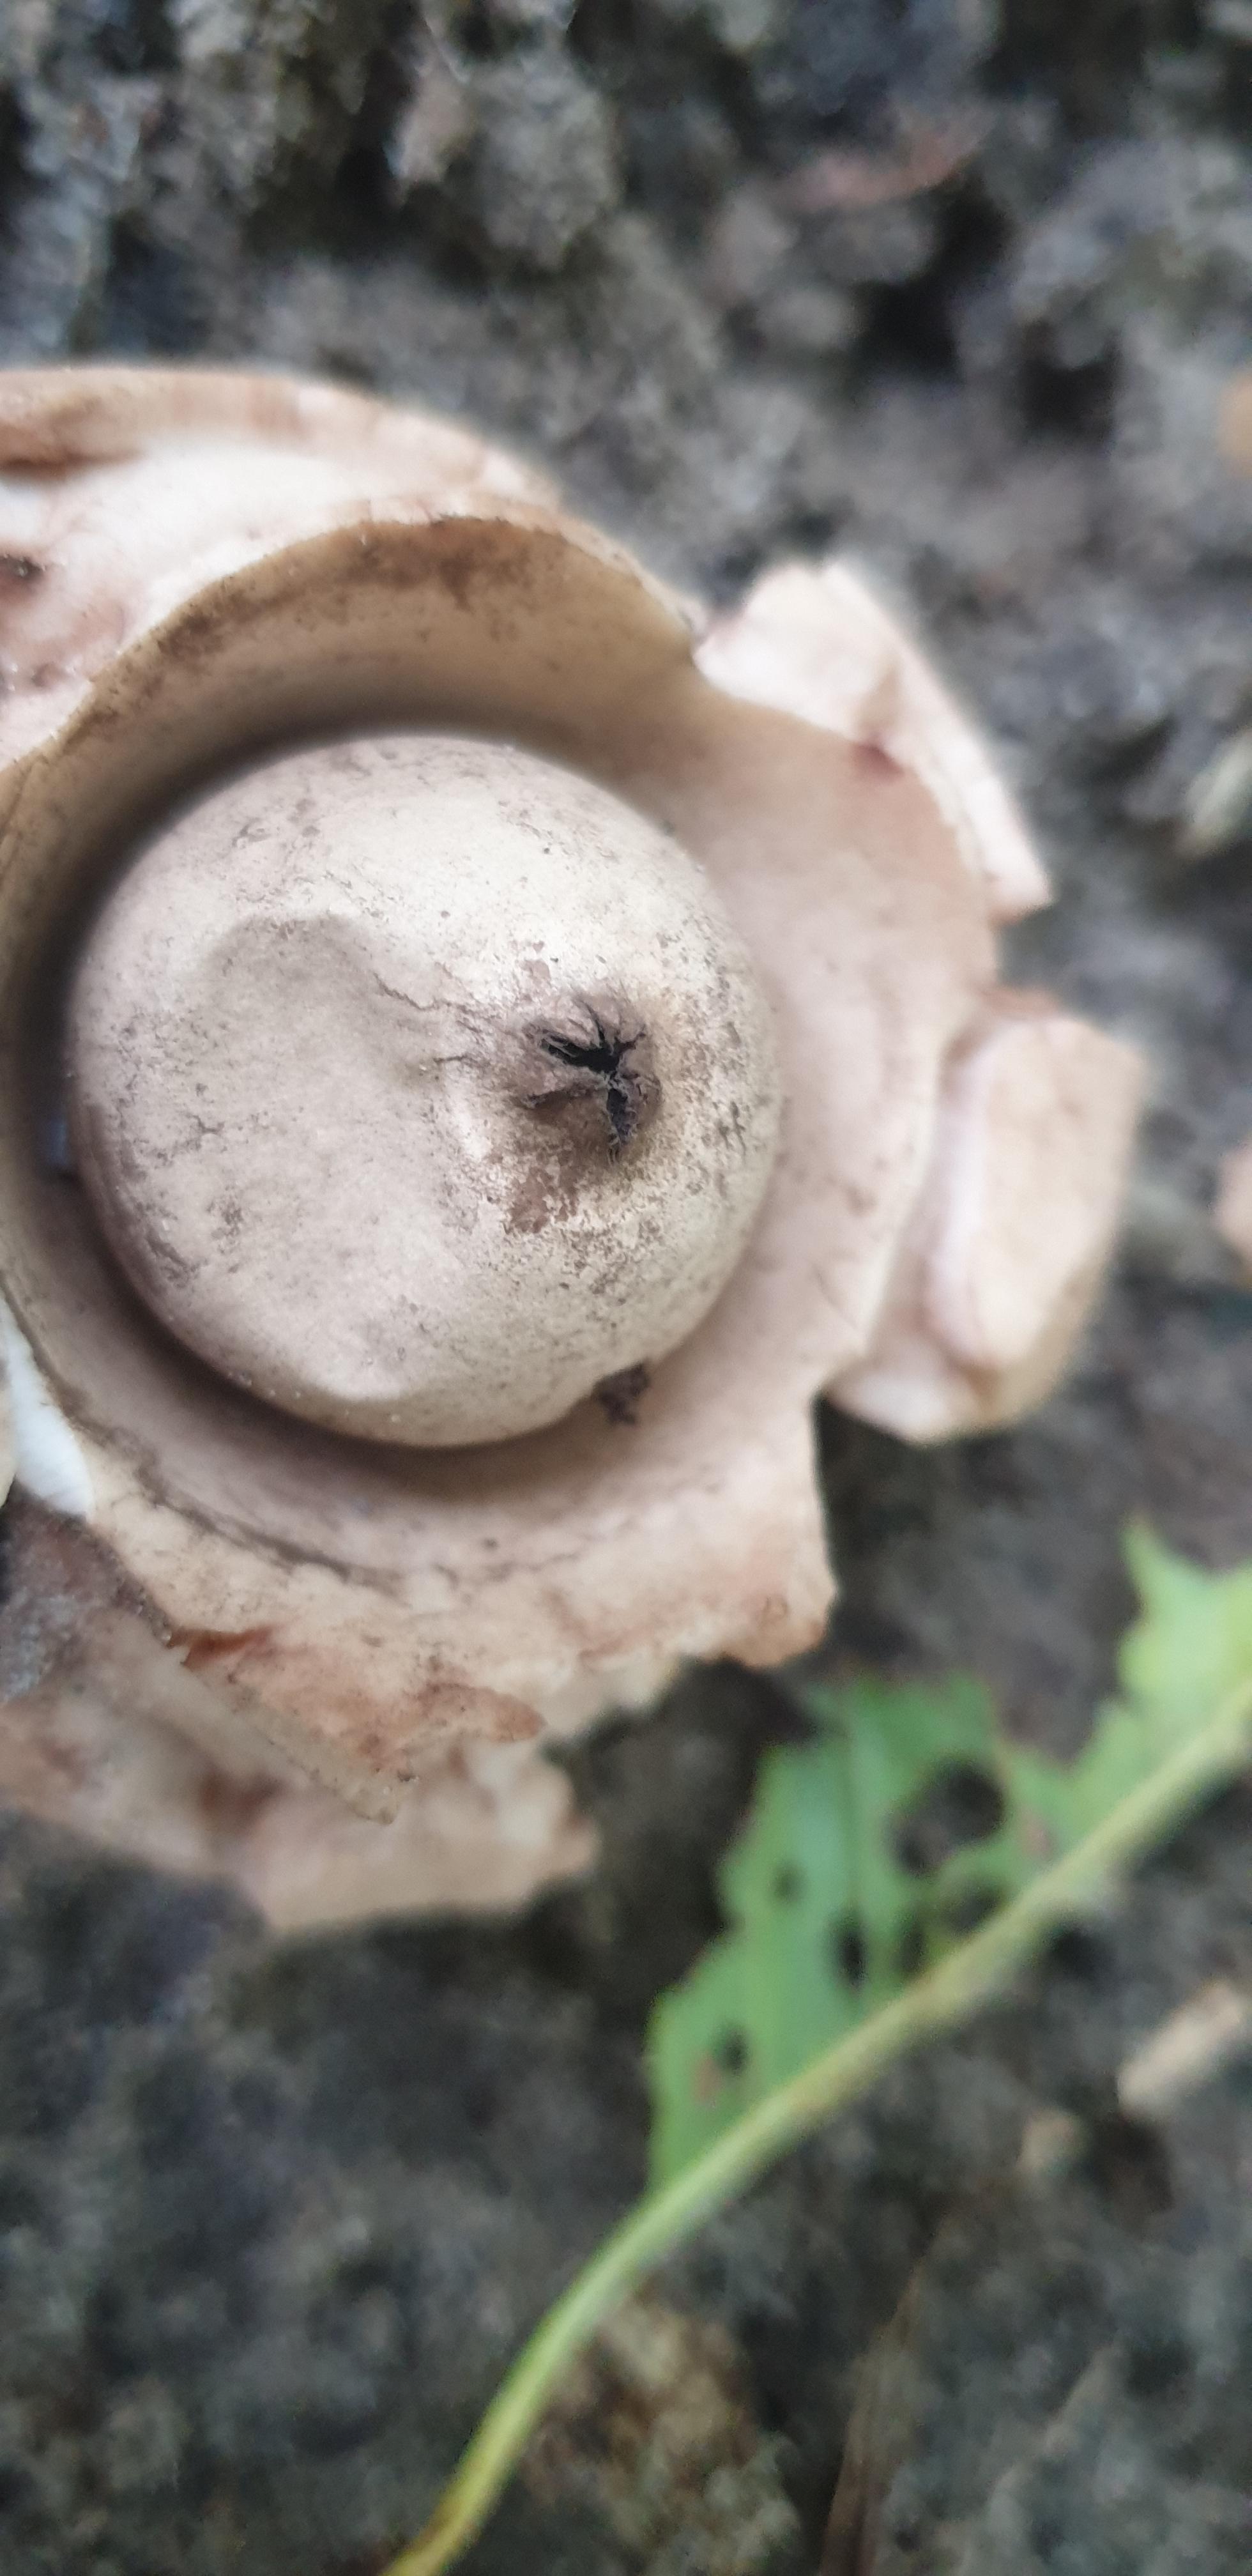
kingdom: Fungi
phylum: Basidiomycota
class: Agaricomycetes
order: Geastrales
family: Geastraceae
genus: Geastrum
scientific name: Geastrum michelianum
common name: kødet stjernebold
